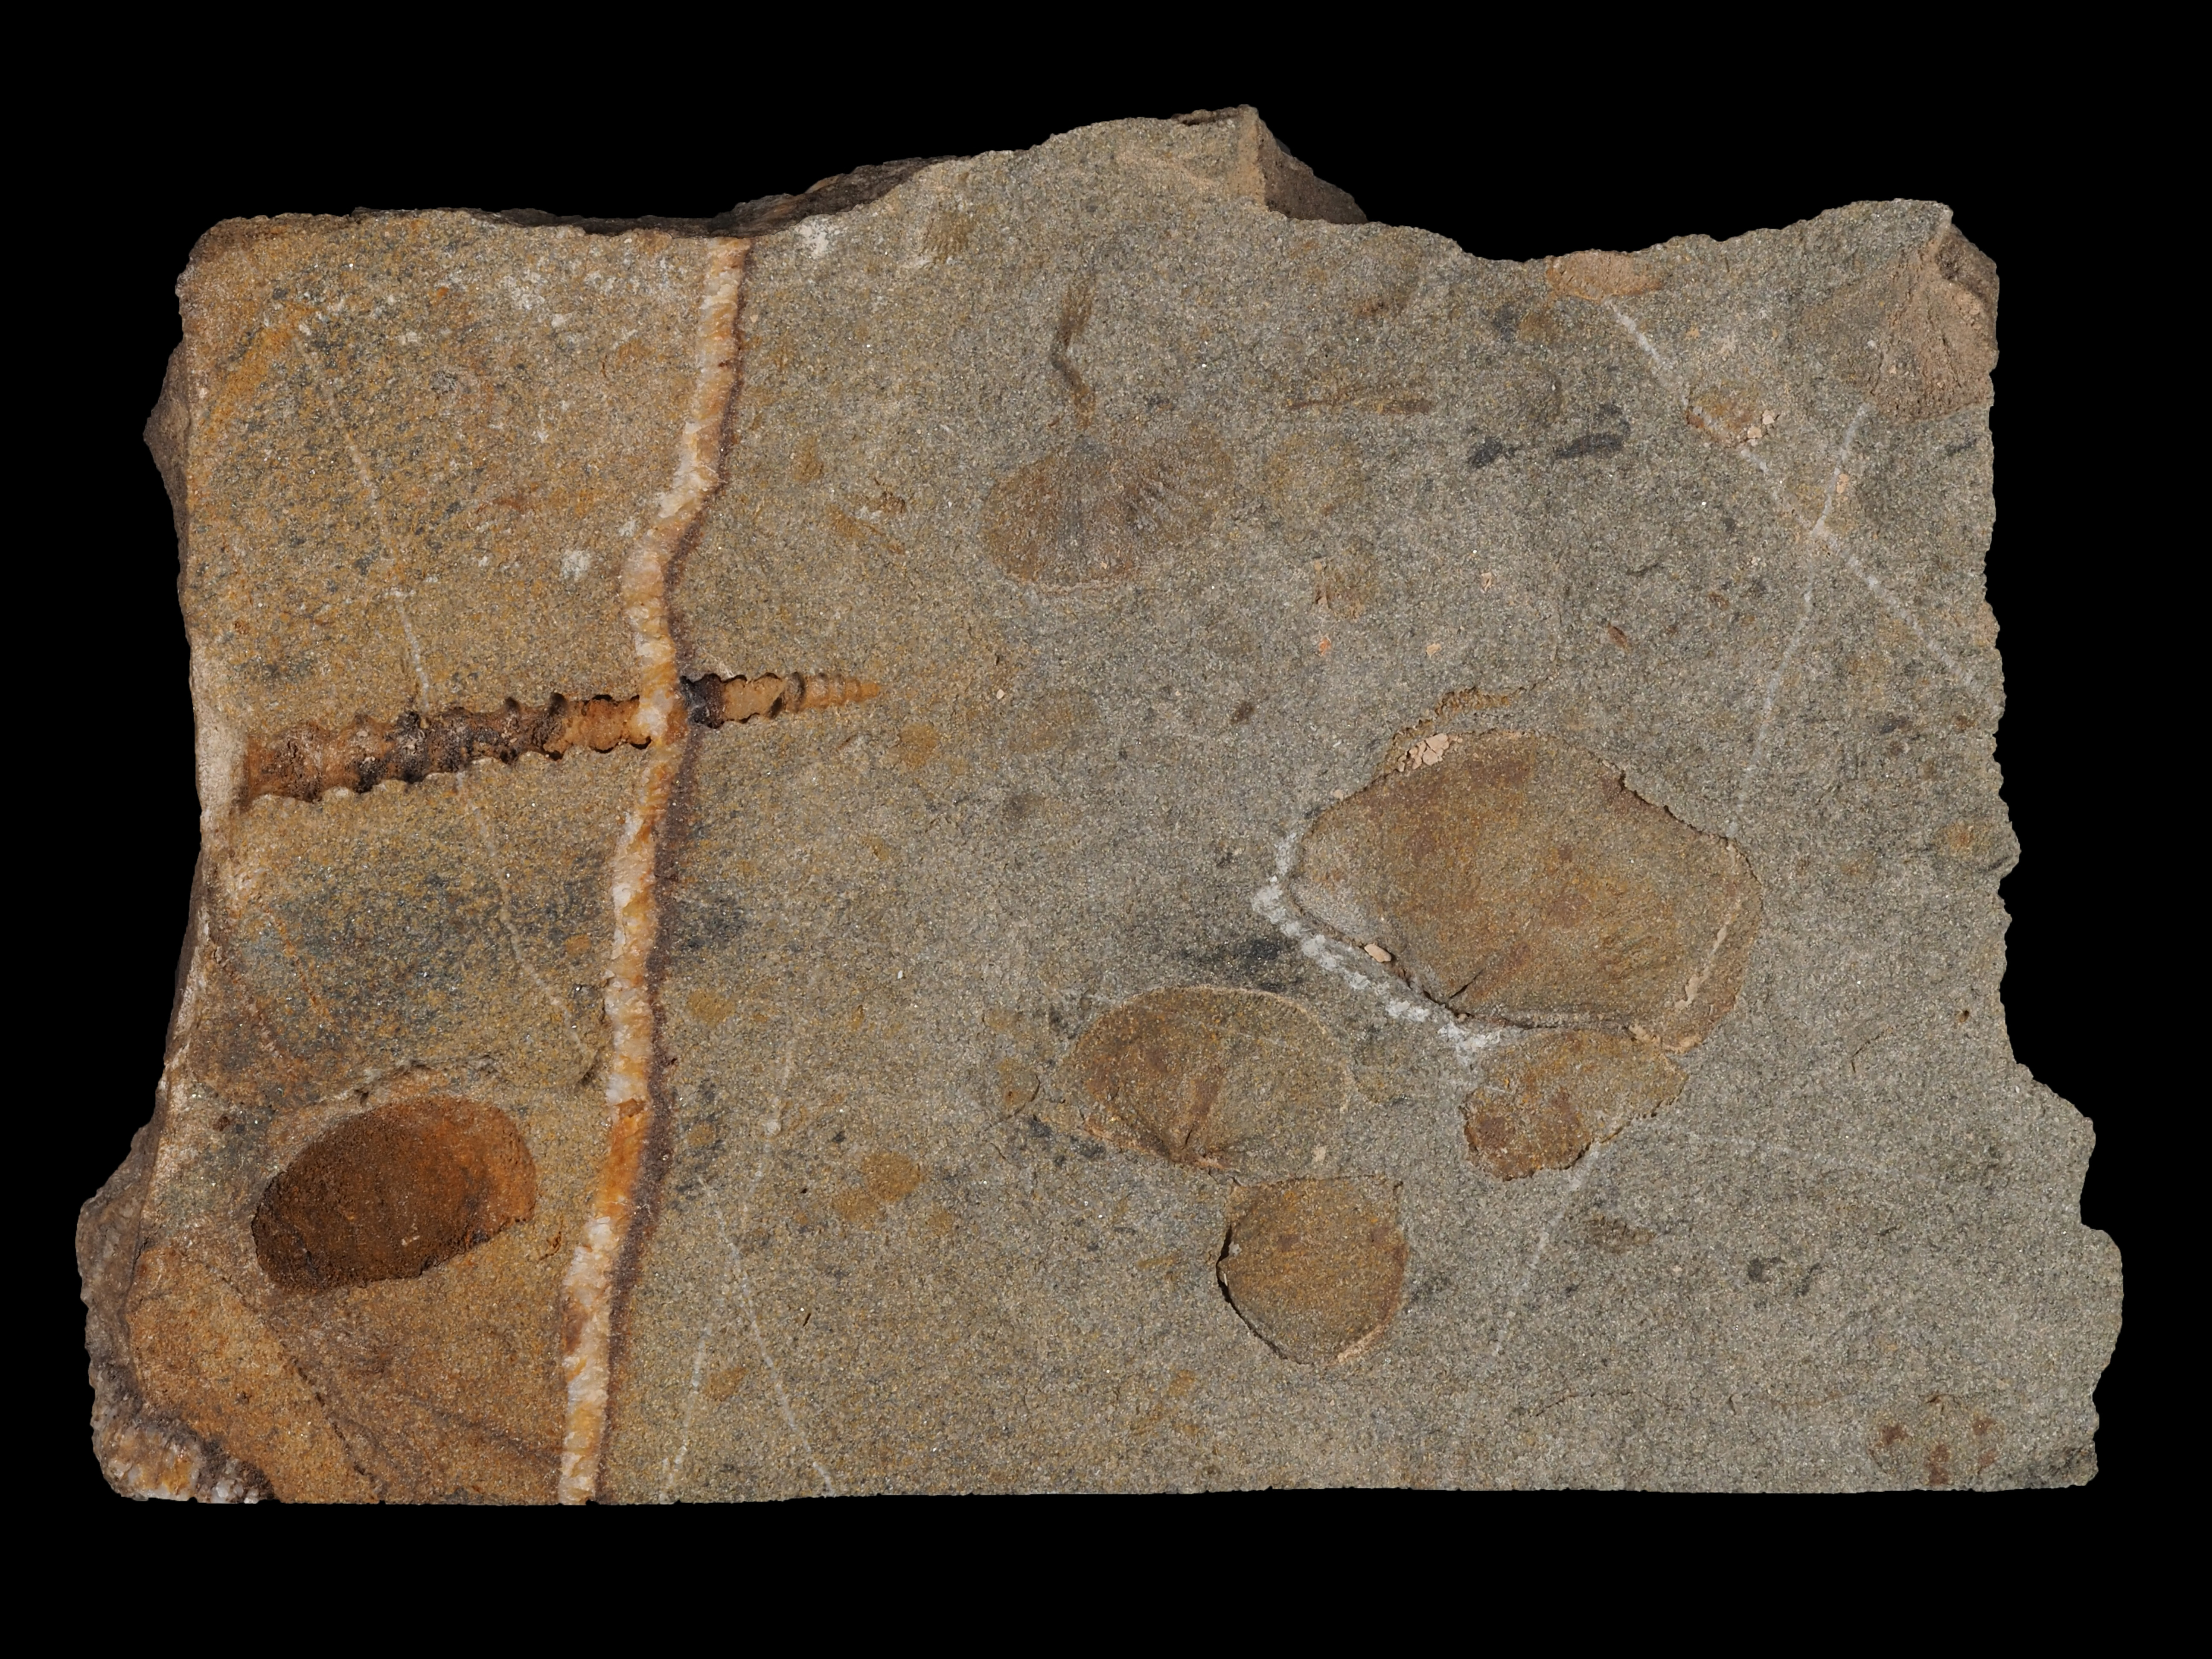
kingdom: Animalia
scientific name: Animalia
